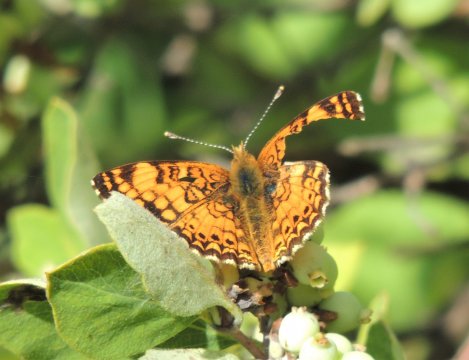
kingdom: Animalia
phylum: Arthropoda
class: Insecta
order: Lepidoptera
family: Nymphalidae
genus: Eresia
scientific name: Eresia aveyrona
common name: Mylitta Crescent
